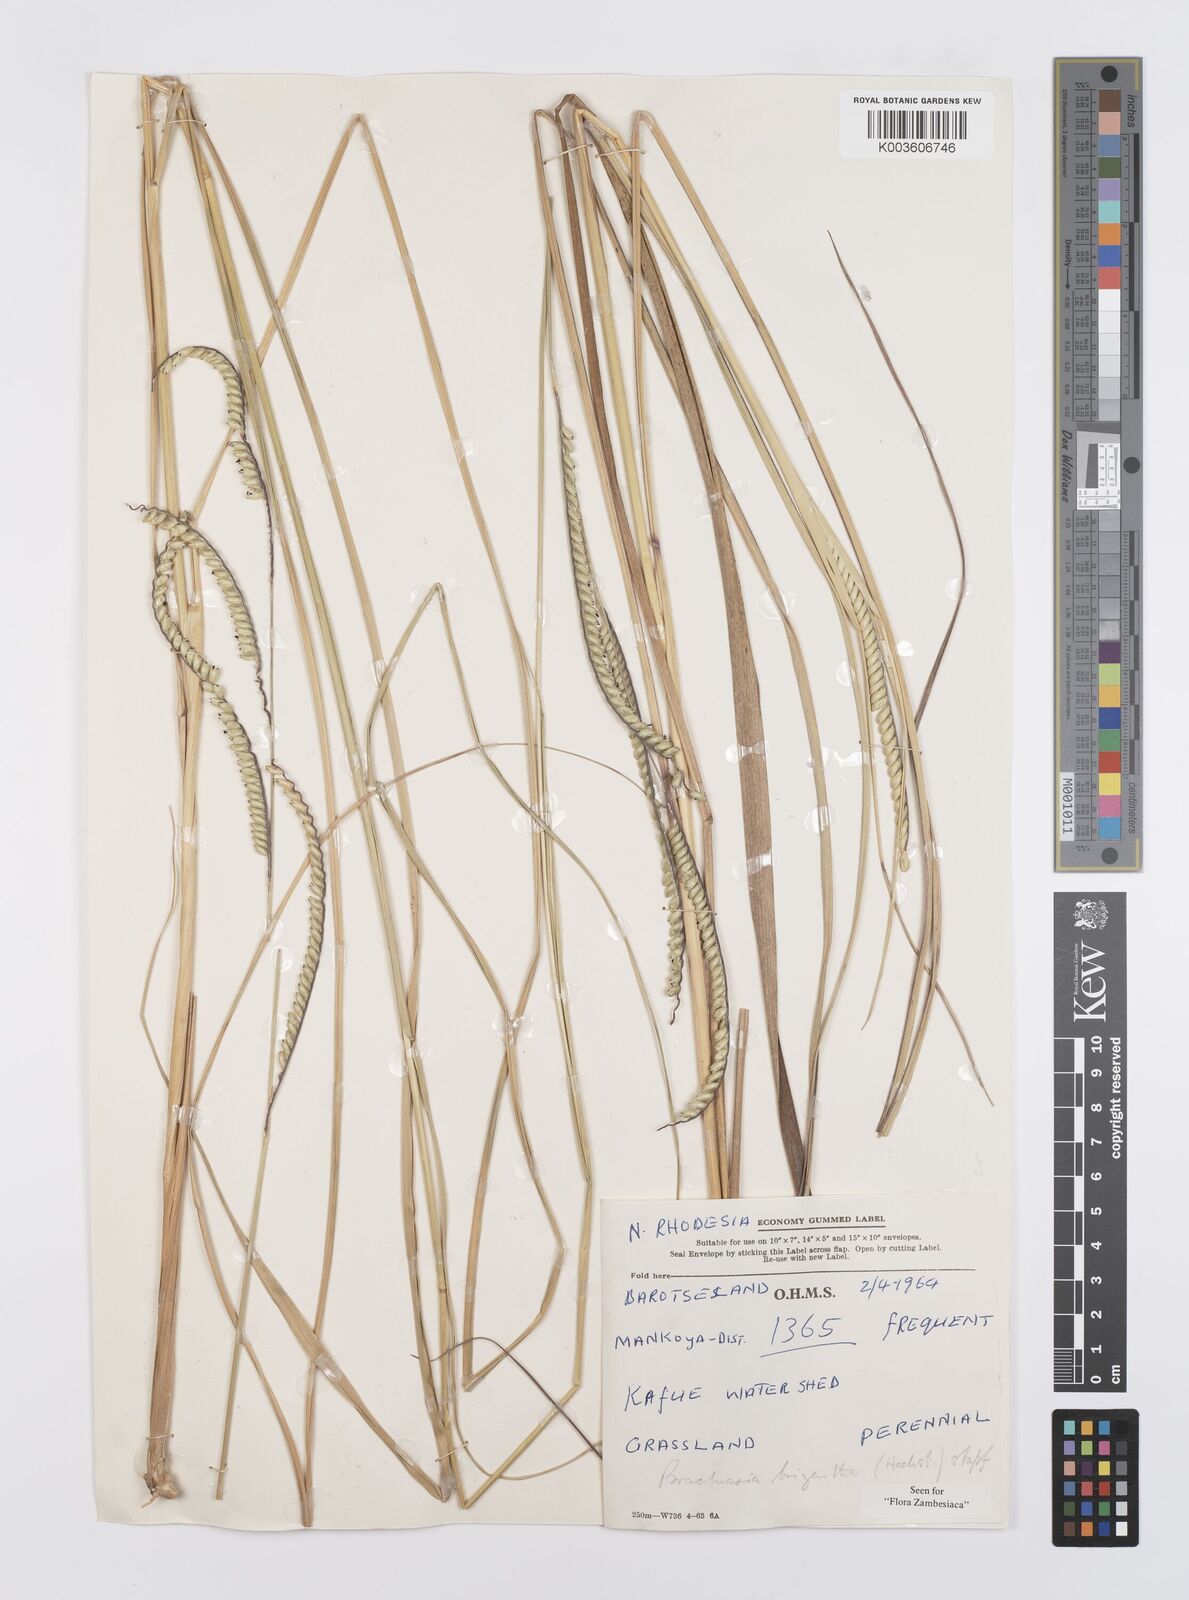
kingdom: Plantae
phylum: Tracheophyta
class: Liliopsida
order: Poales
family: Poaceae
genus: Urochloa
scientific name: Urochloa brizantha
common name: Palisade signalgrass
